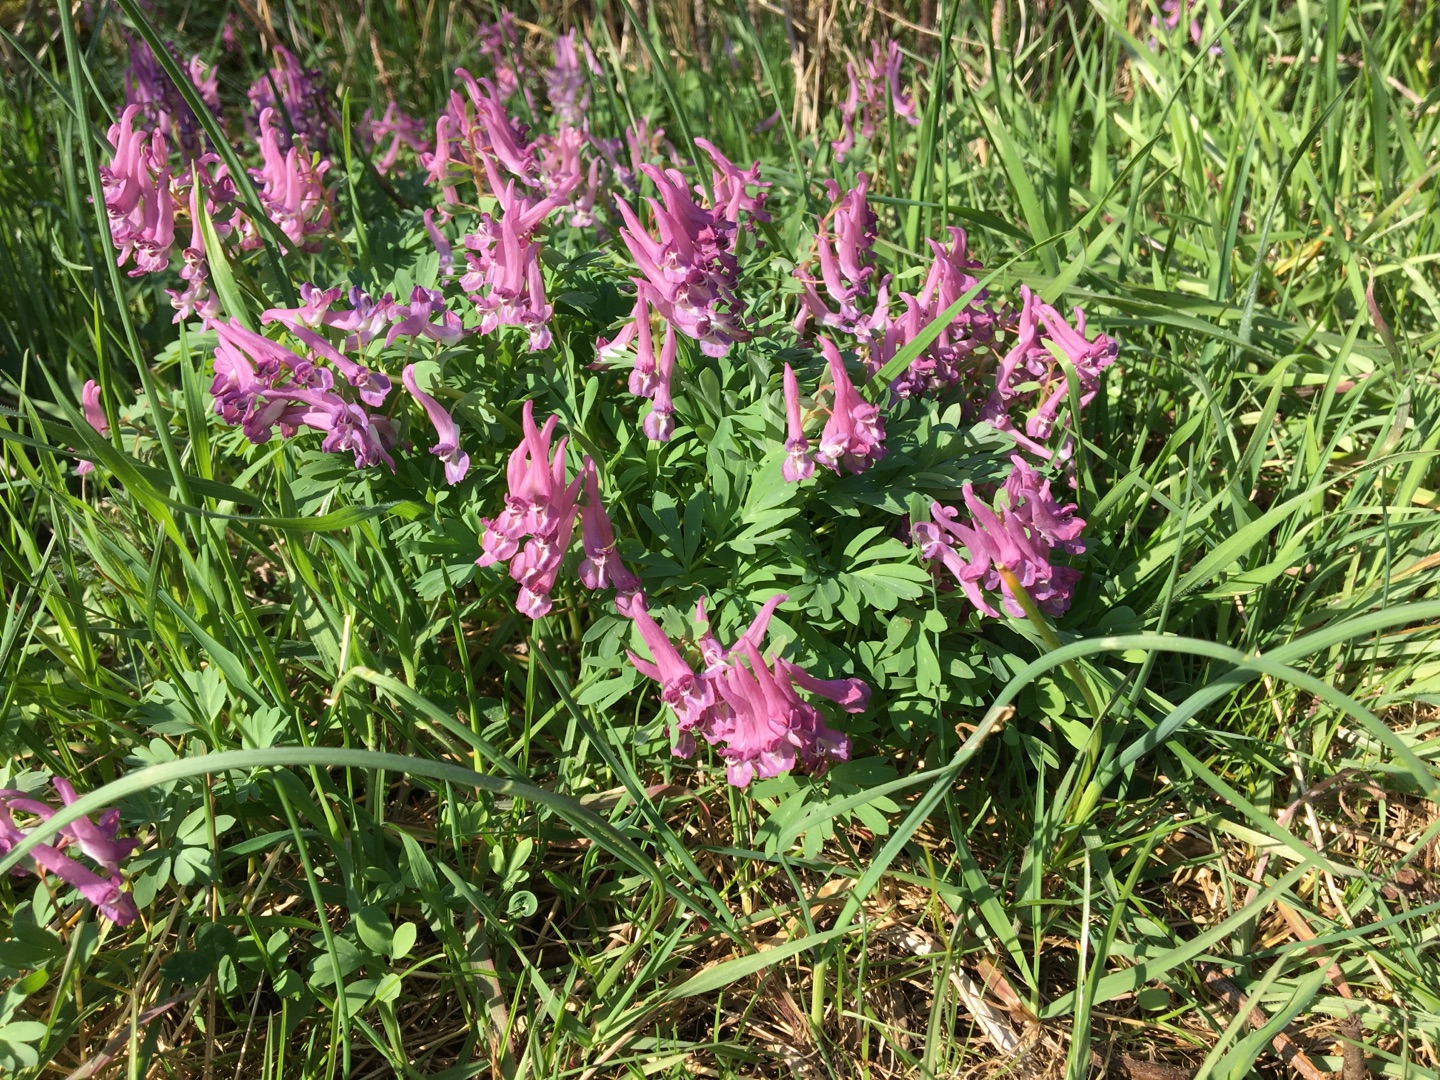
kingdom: Plantae
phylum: Tracheophyta
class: Magnoliopsida
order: Ranunculales
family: Papaveraceae
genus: Corydalis
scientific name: Corydalis solida
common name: Langstilket lærkespore
